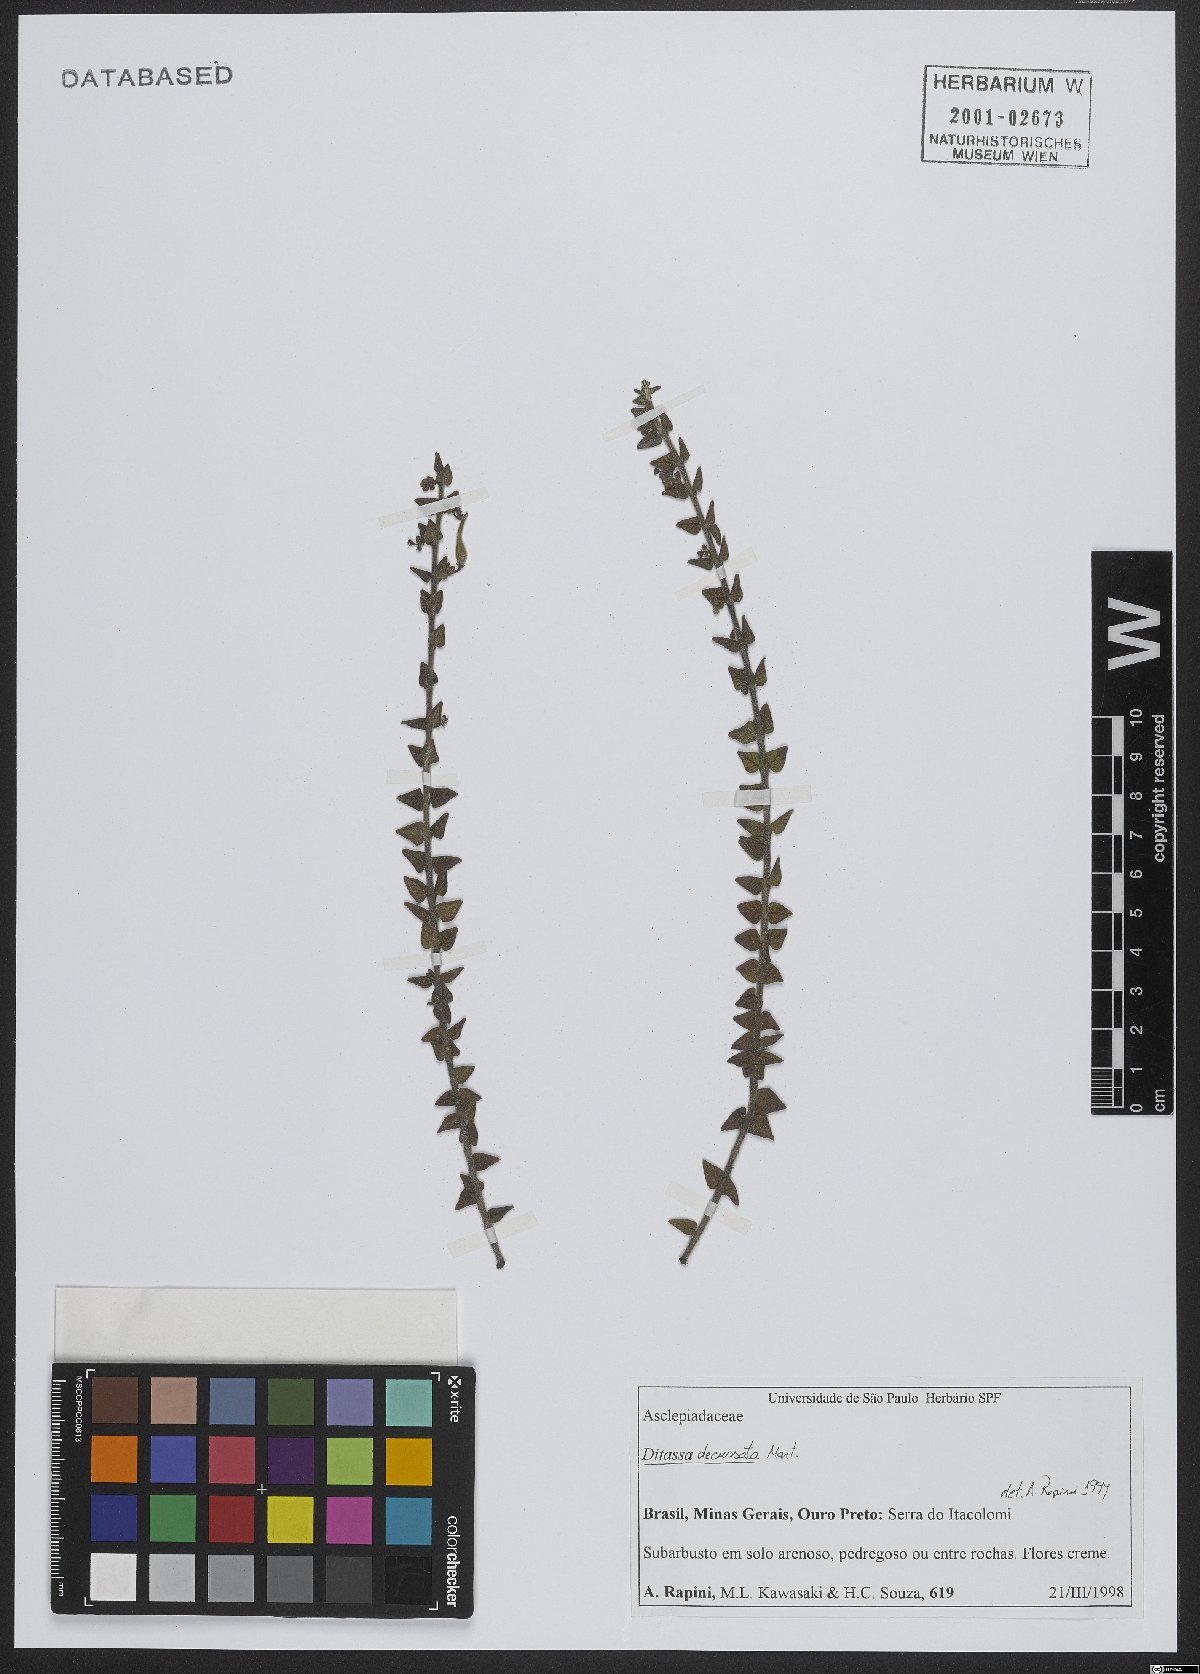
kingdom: Plantae
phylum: Tracheophyta
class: Magnoliopsida
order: Gentianales
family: Apocynaceae
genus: Minaria
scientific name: Minaria decussata
